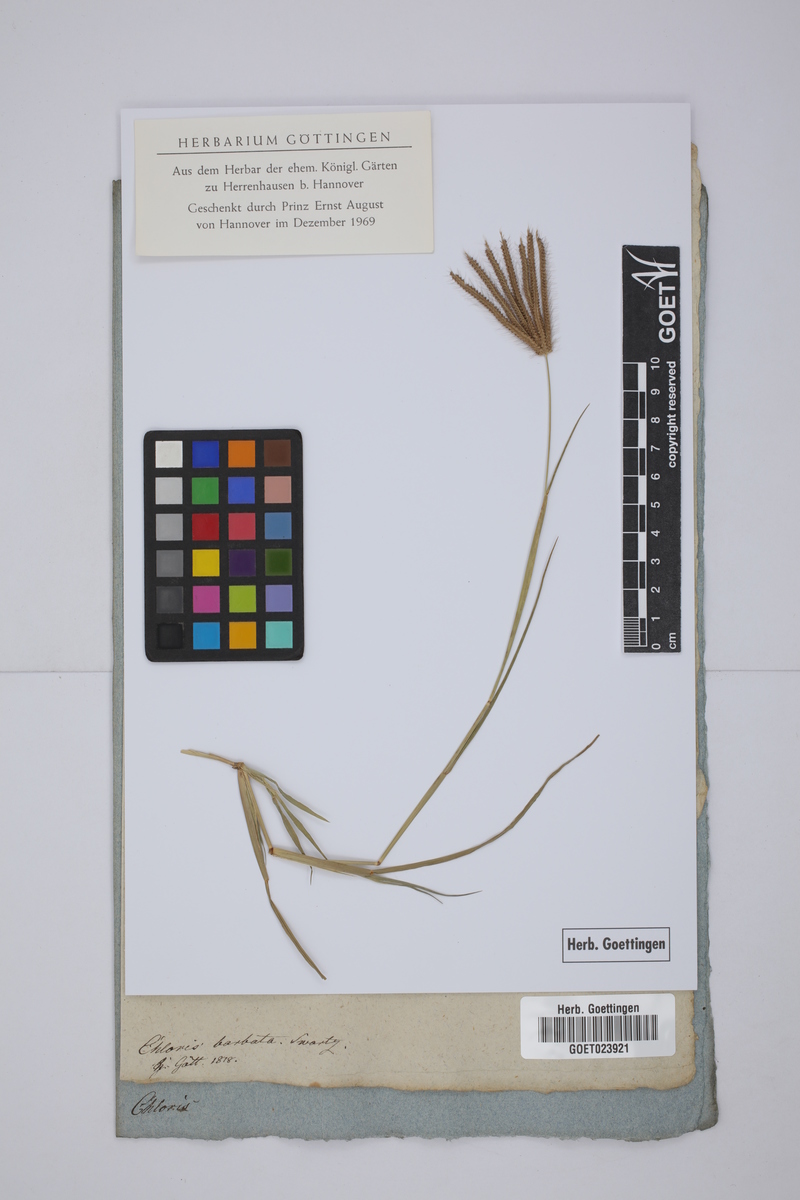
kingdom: Plantae
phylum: Tracheophyta
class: Liliopsida
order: Poales
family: Poaceae
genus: Chloris
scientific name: Chloris barbata
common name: Swollen fingergrass
